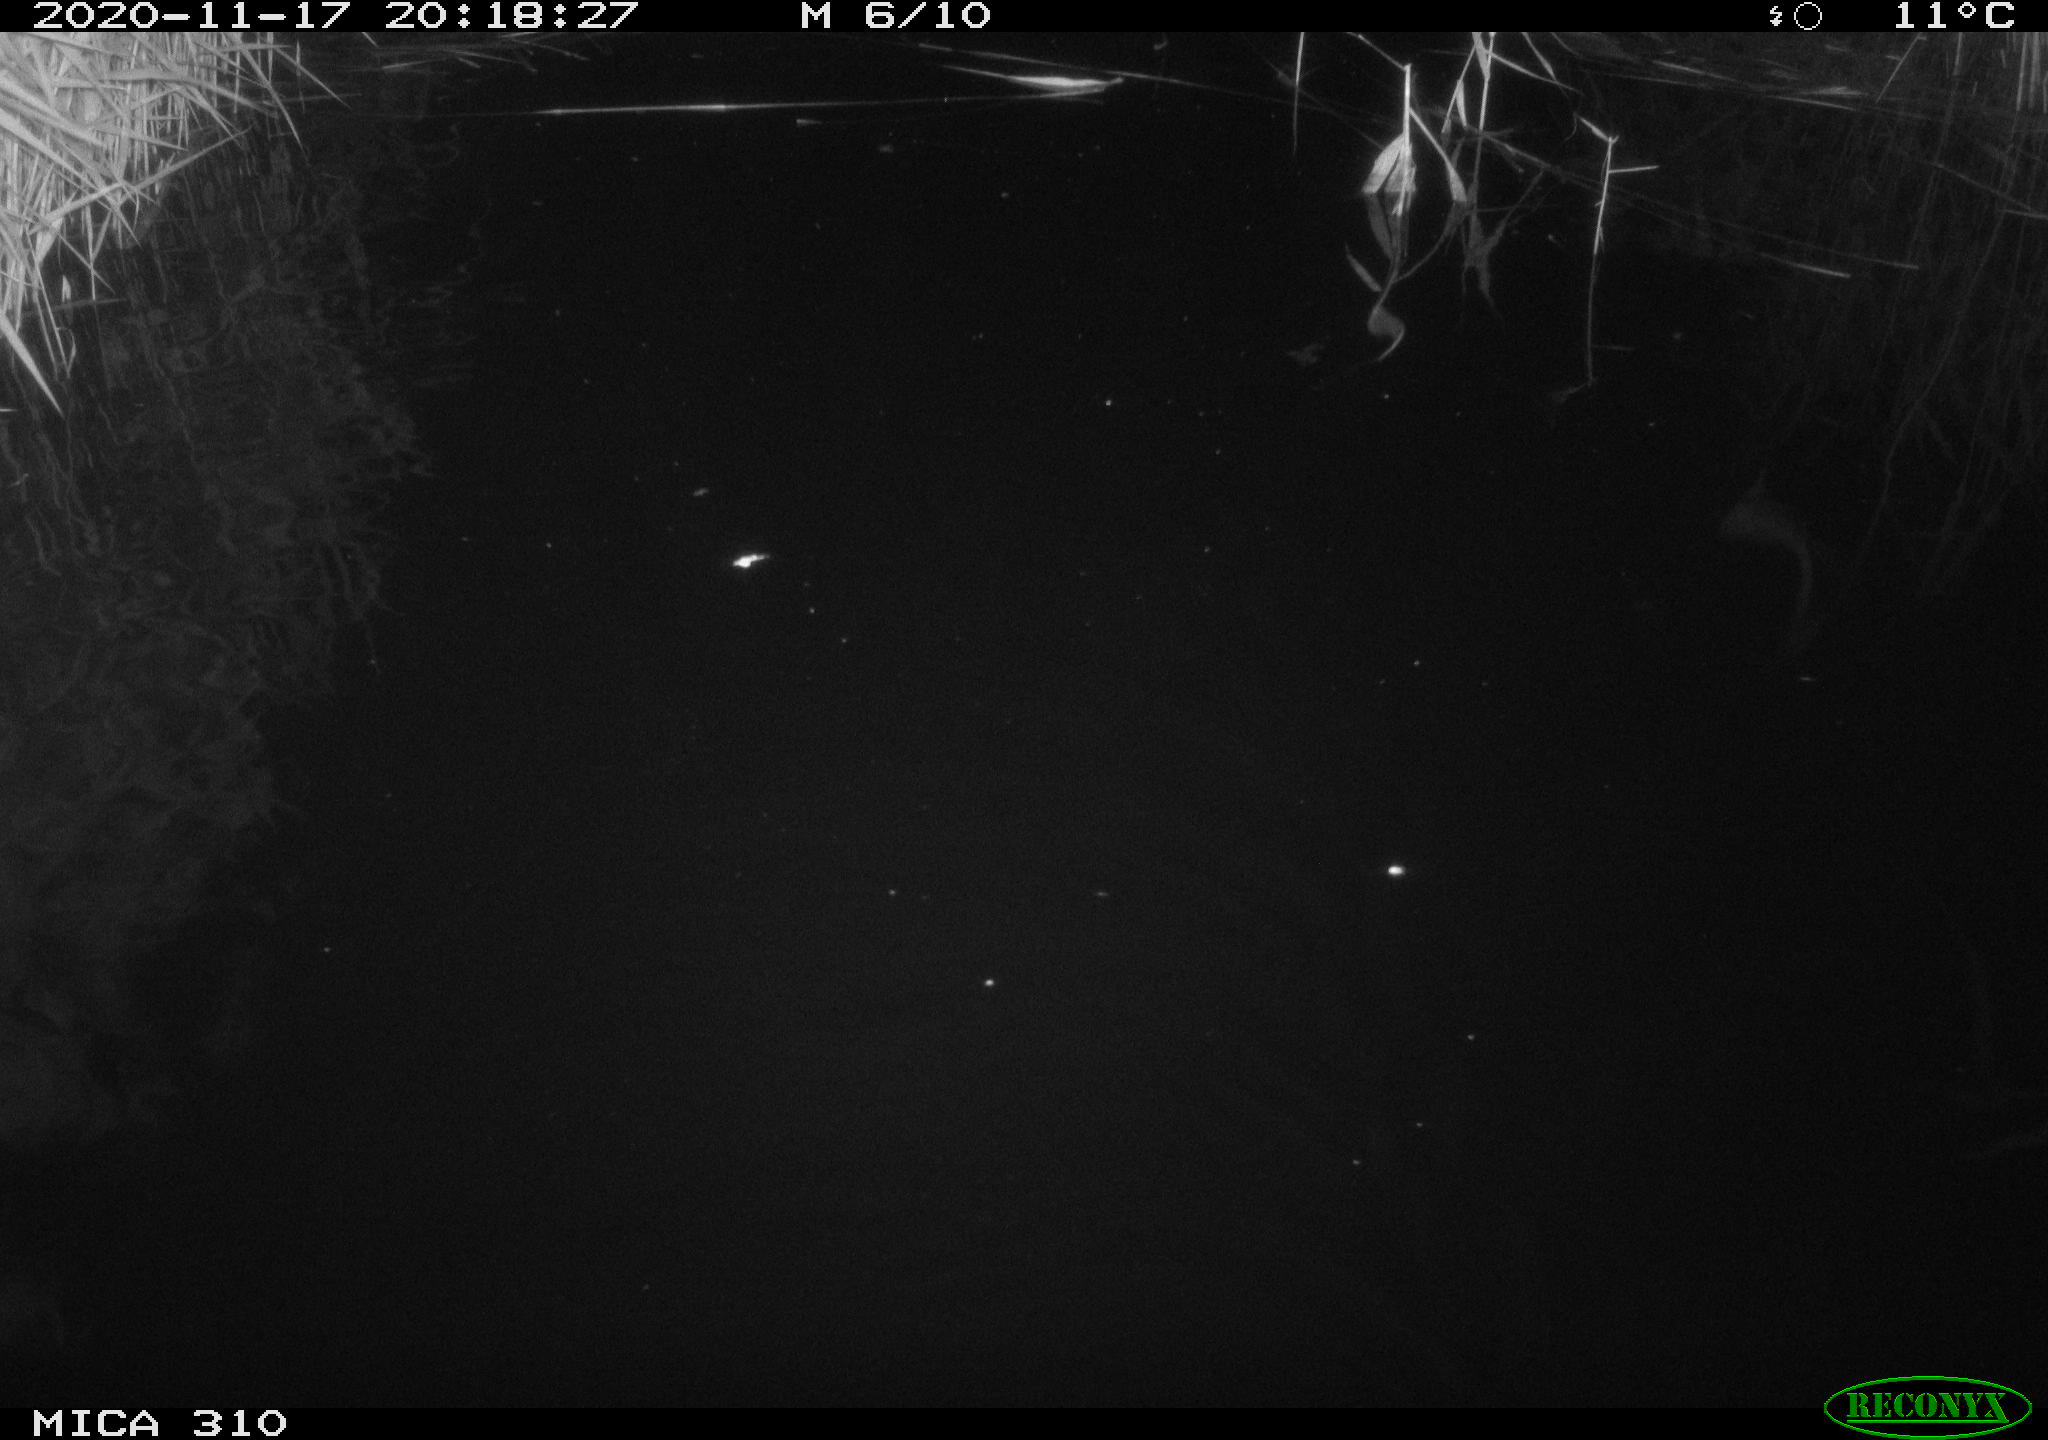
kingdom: Animalia
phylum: Chordata
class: Mammalia
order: Rodentia
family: Cricetidae
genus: Ondatra
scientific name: Ondatra zibethicus
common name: Muskrat
